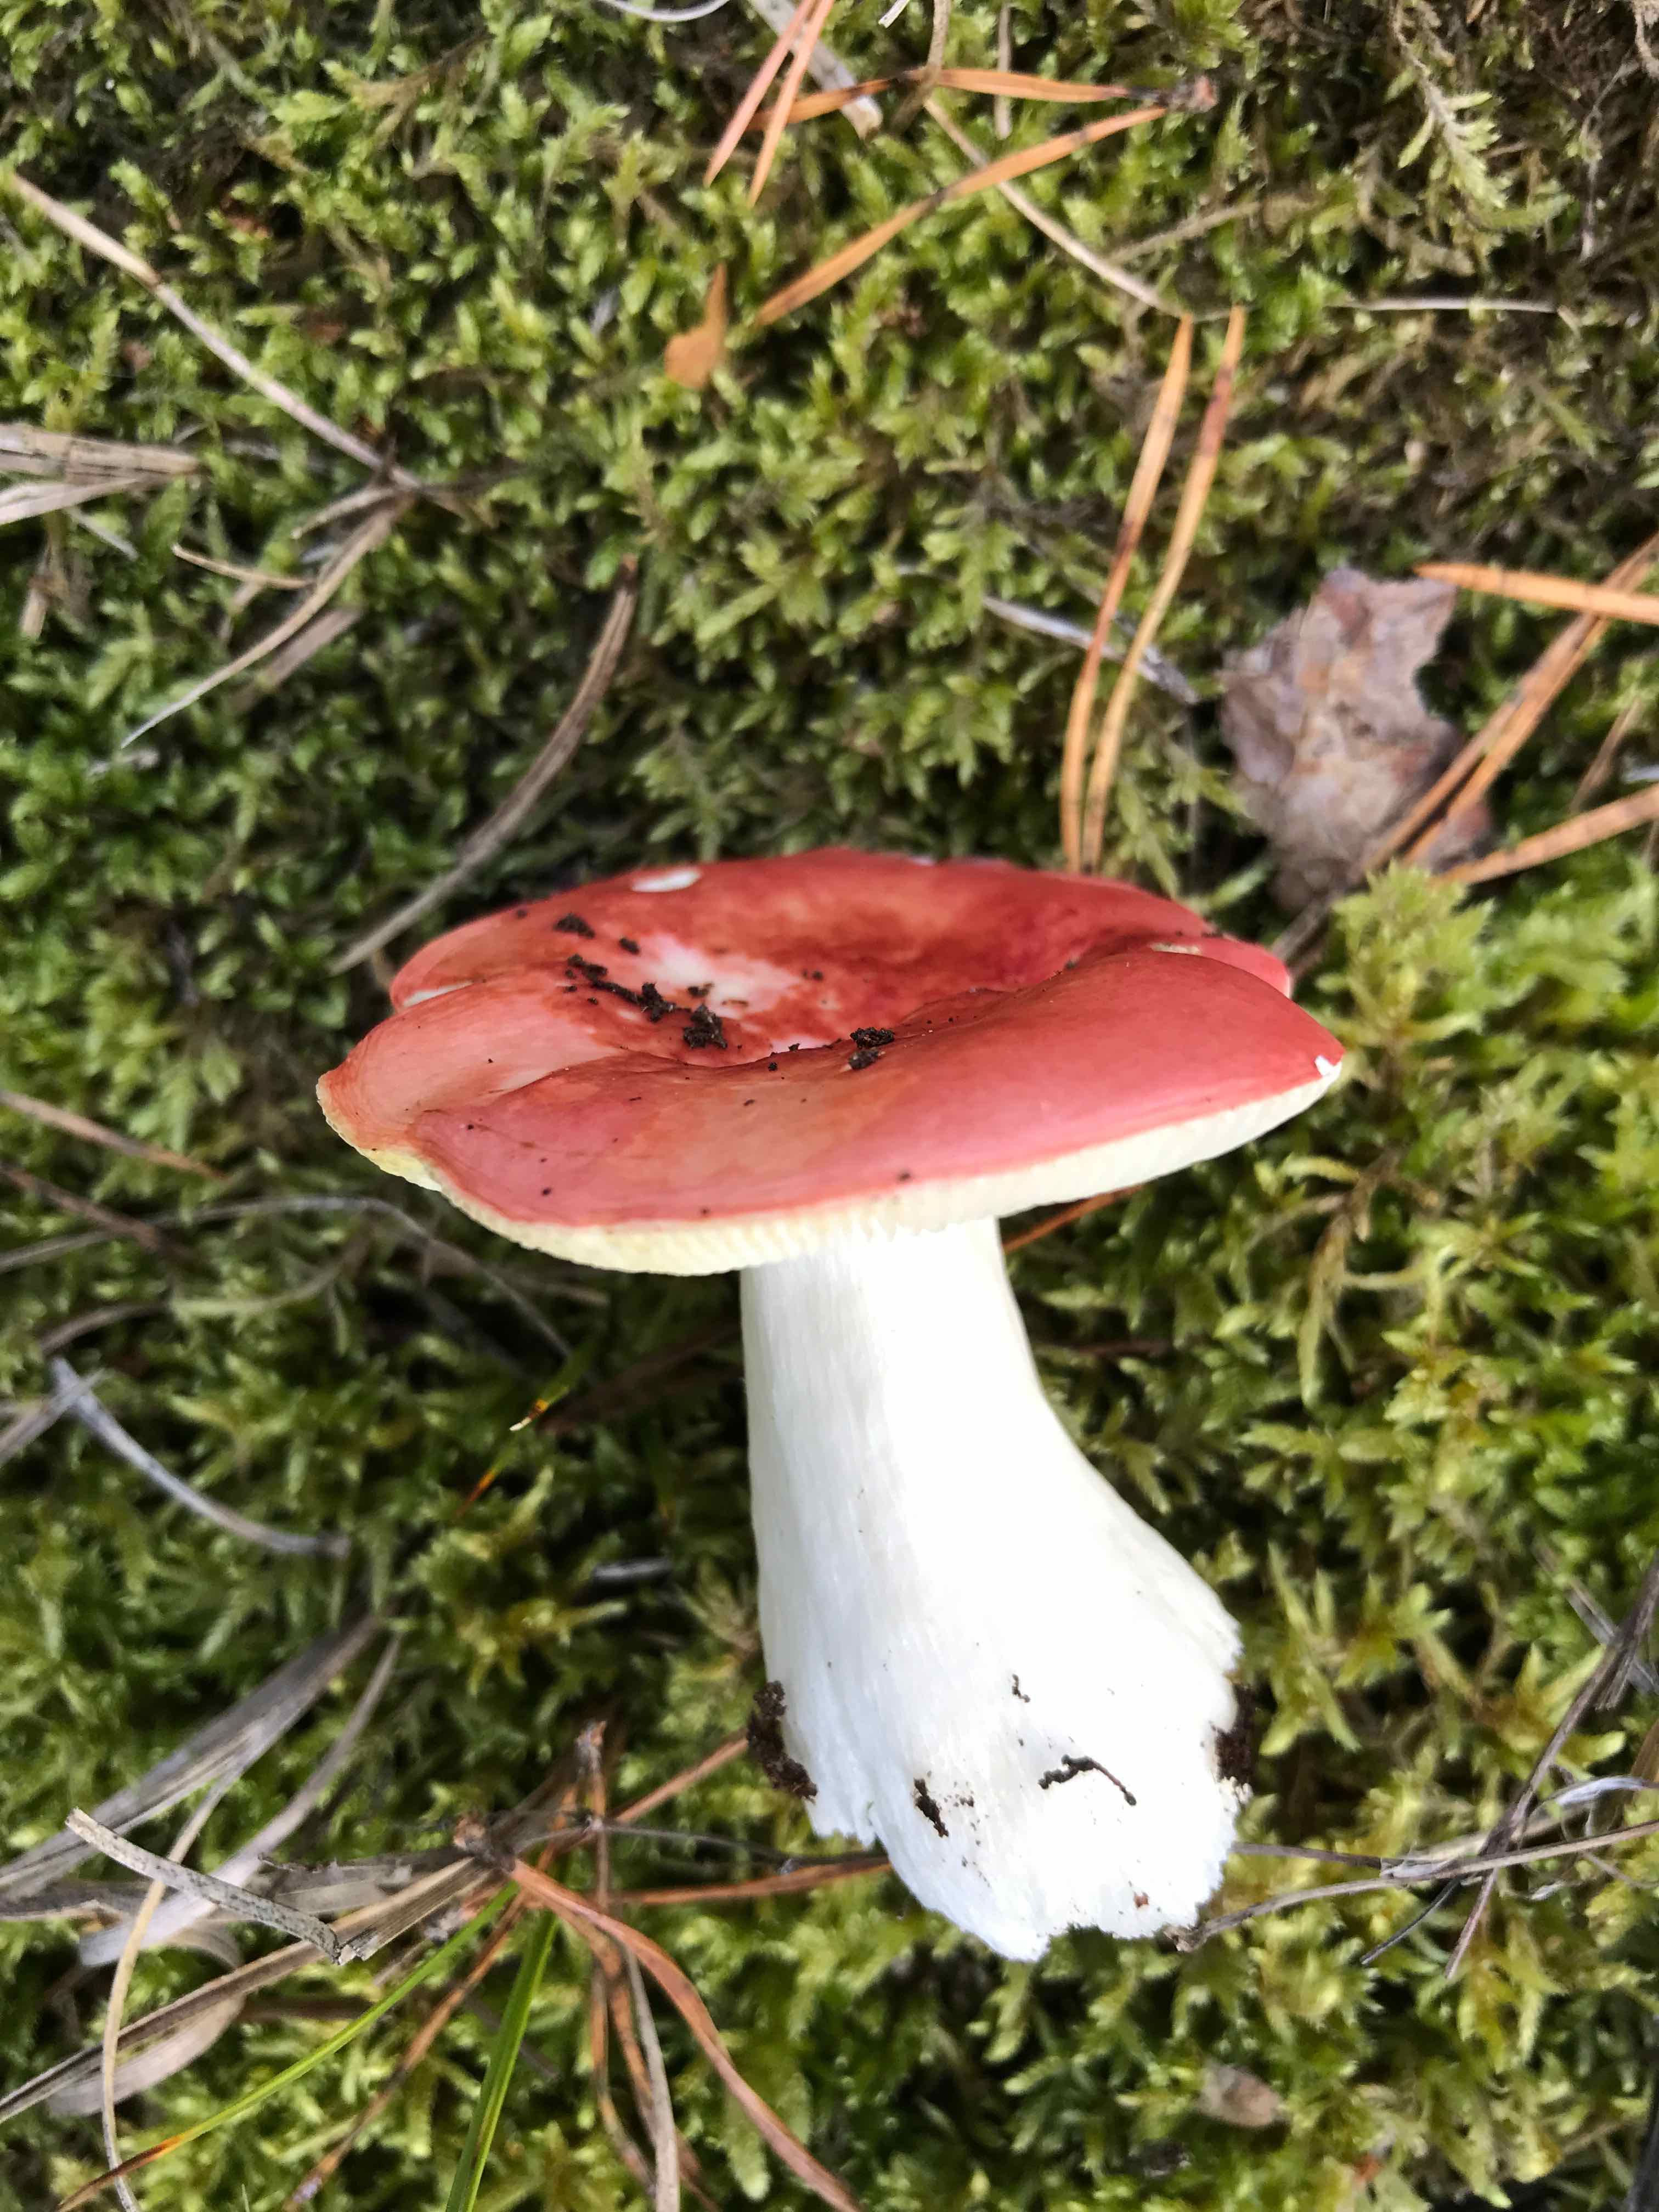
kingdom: Fungi
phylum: Basidiomycota
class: Agaricomycetes
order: Russulales
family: Russulaceae
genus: Russula
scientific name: Russula emetica
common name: stor gift-skørhat
